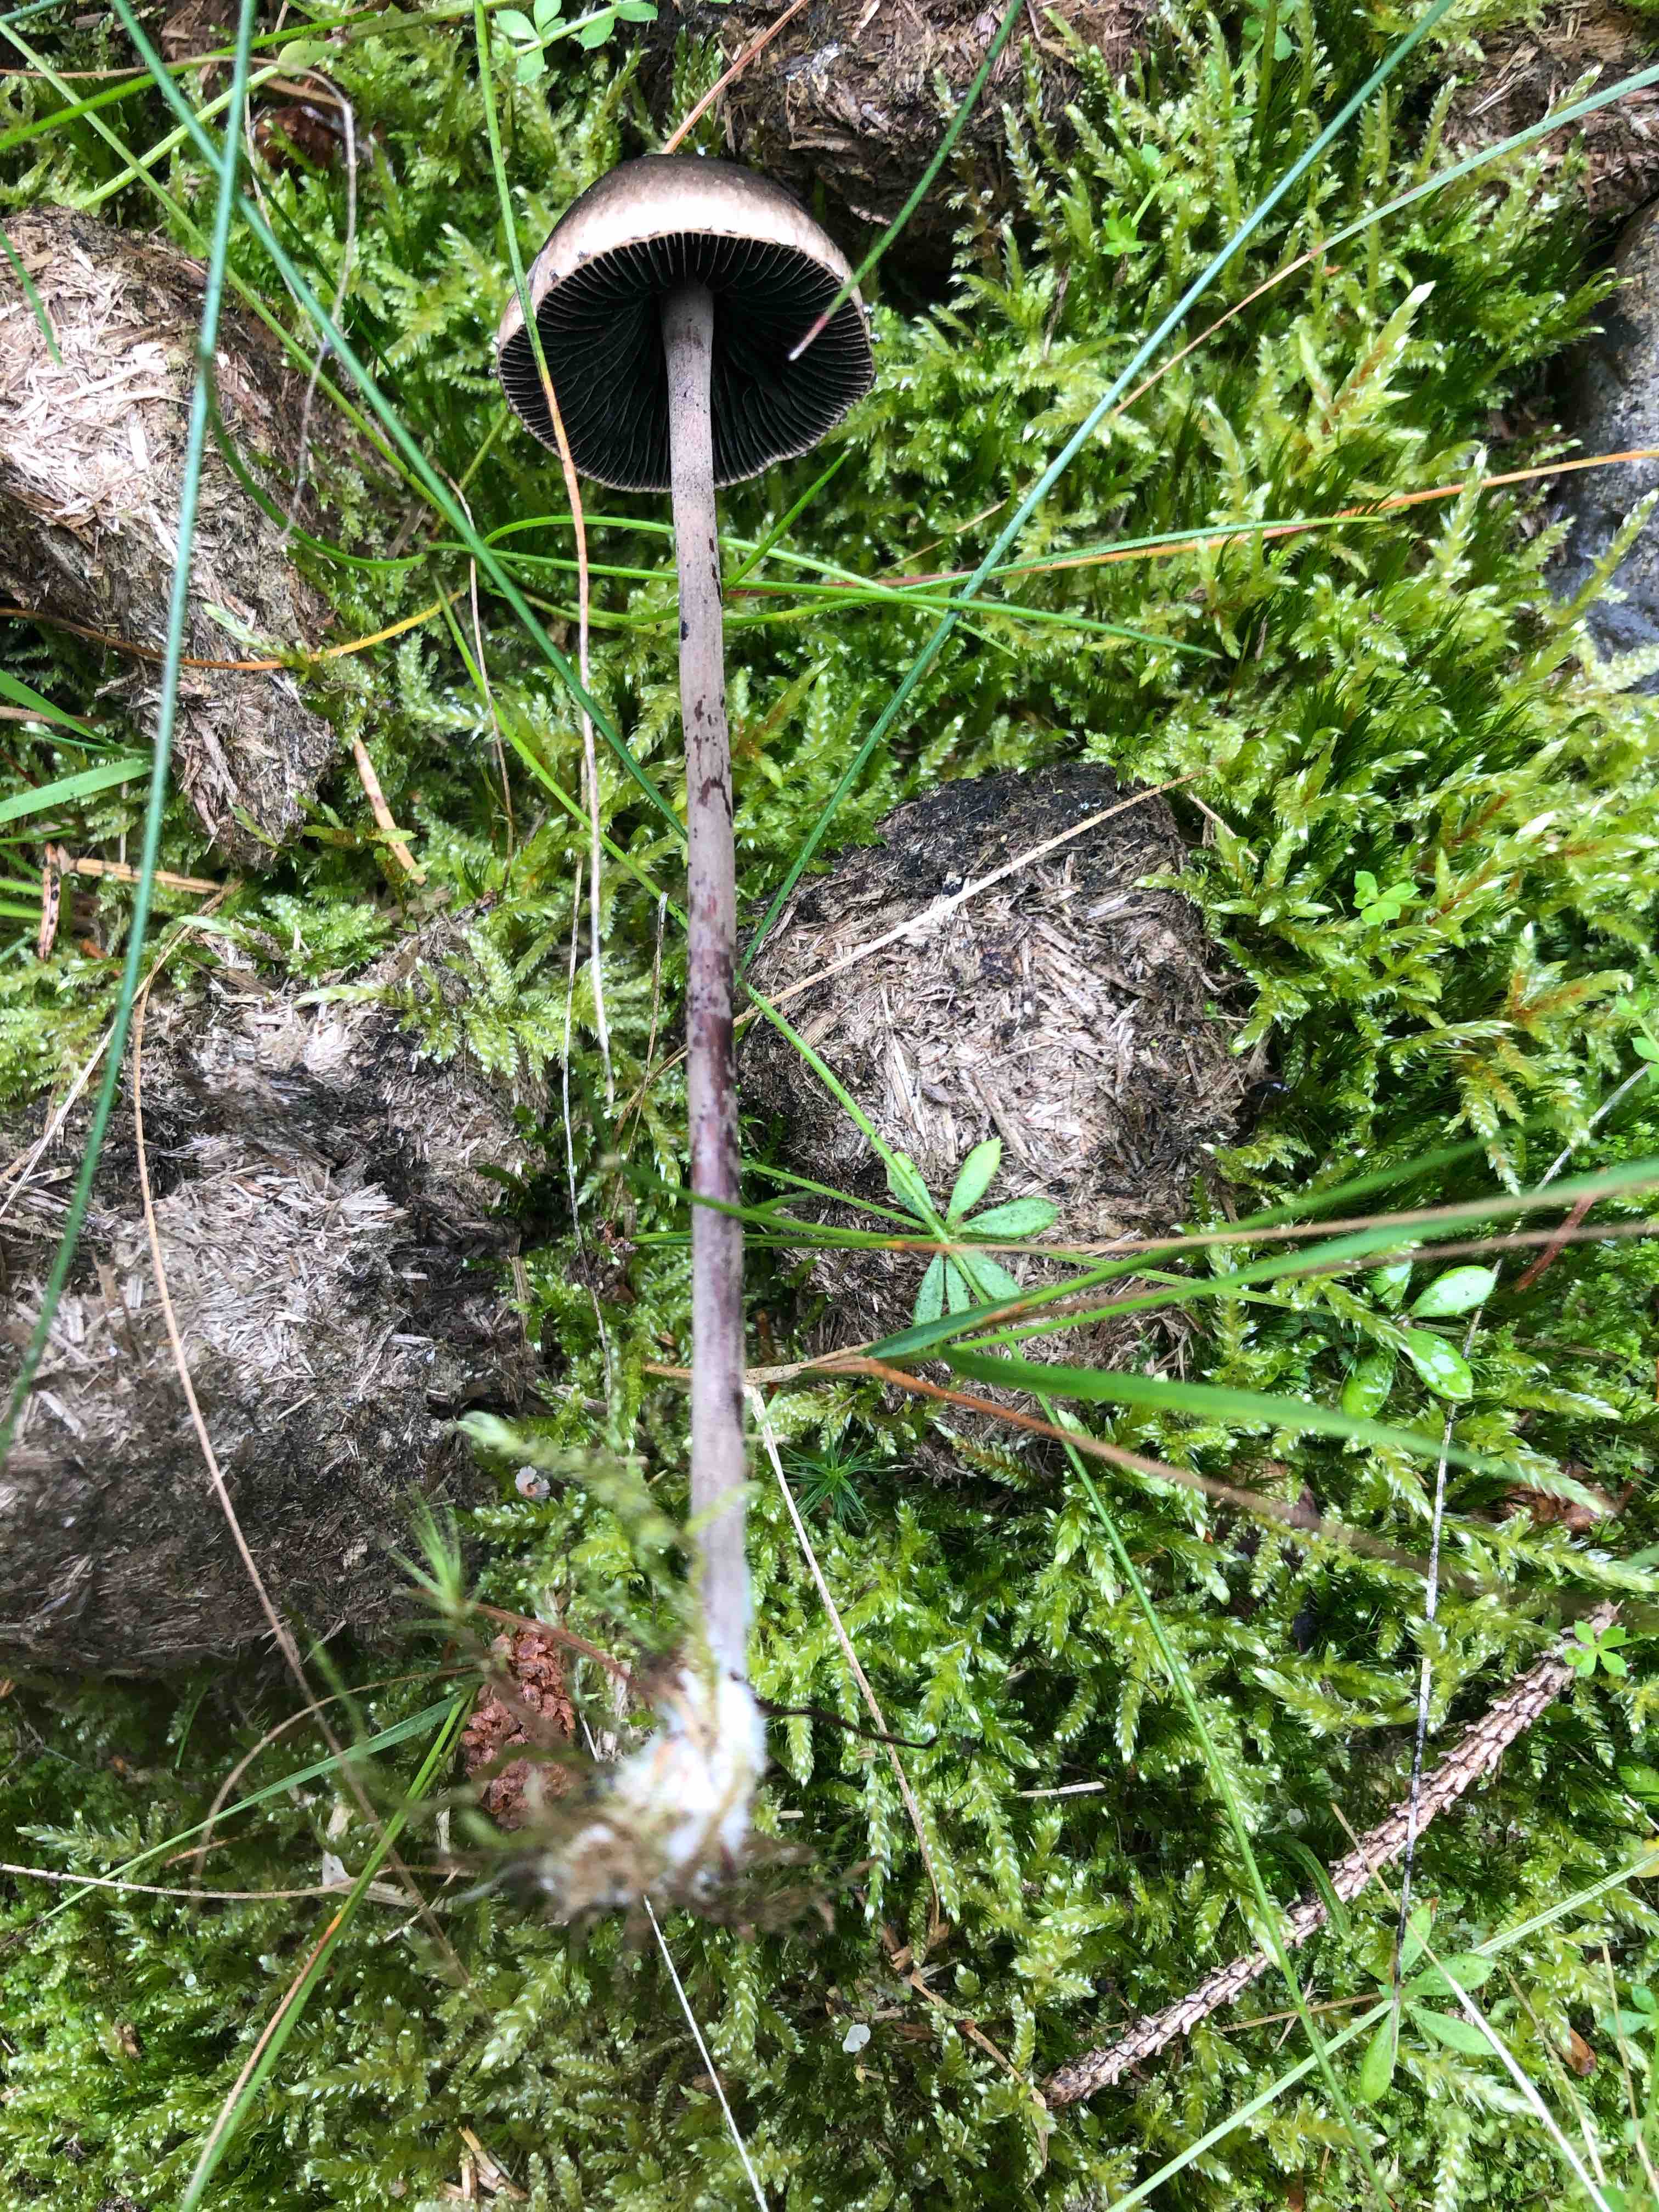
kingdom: Fungi
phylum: Basidiomycota
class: Agaricomycetes
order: Agaricales
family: Bolbitiaceae
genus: Panaeolus
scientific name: Panaeolus papilionaceus
